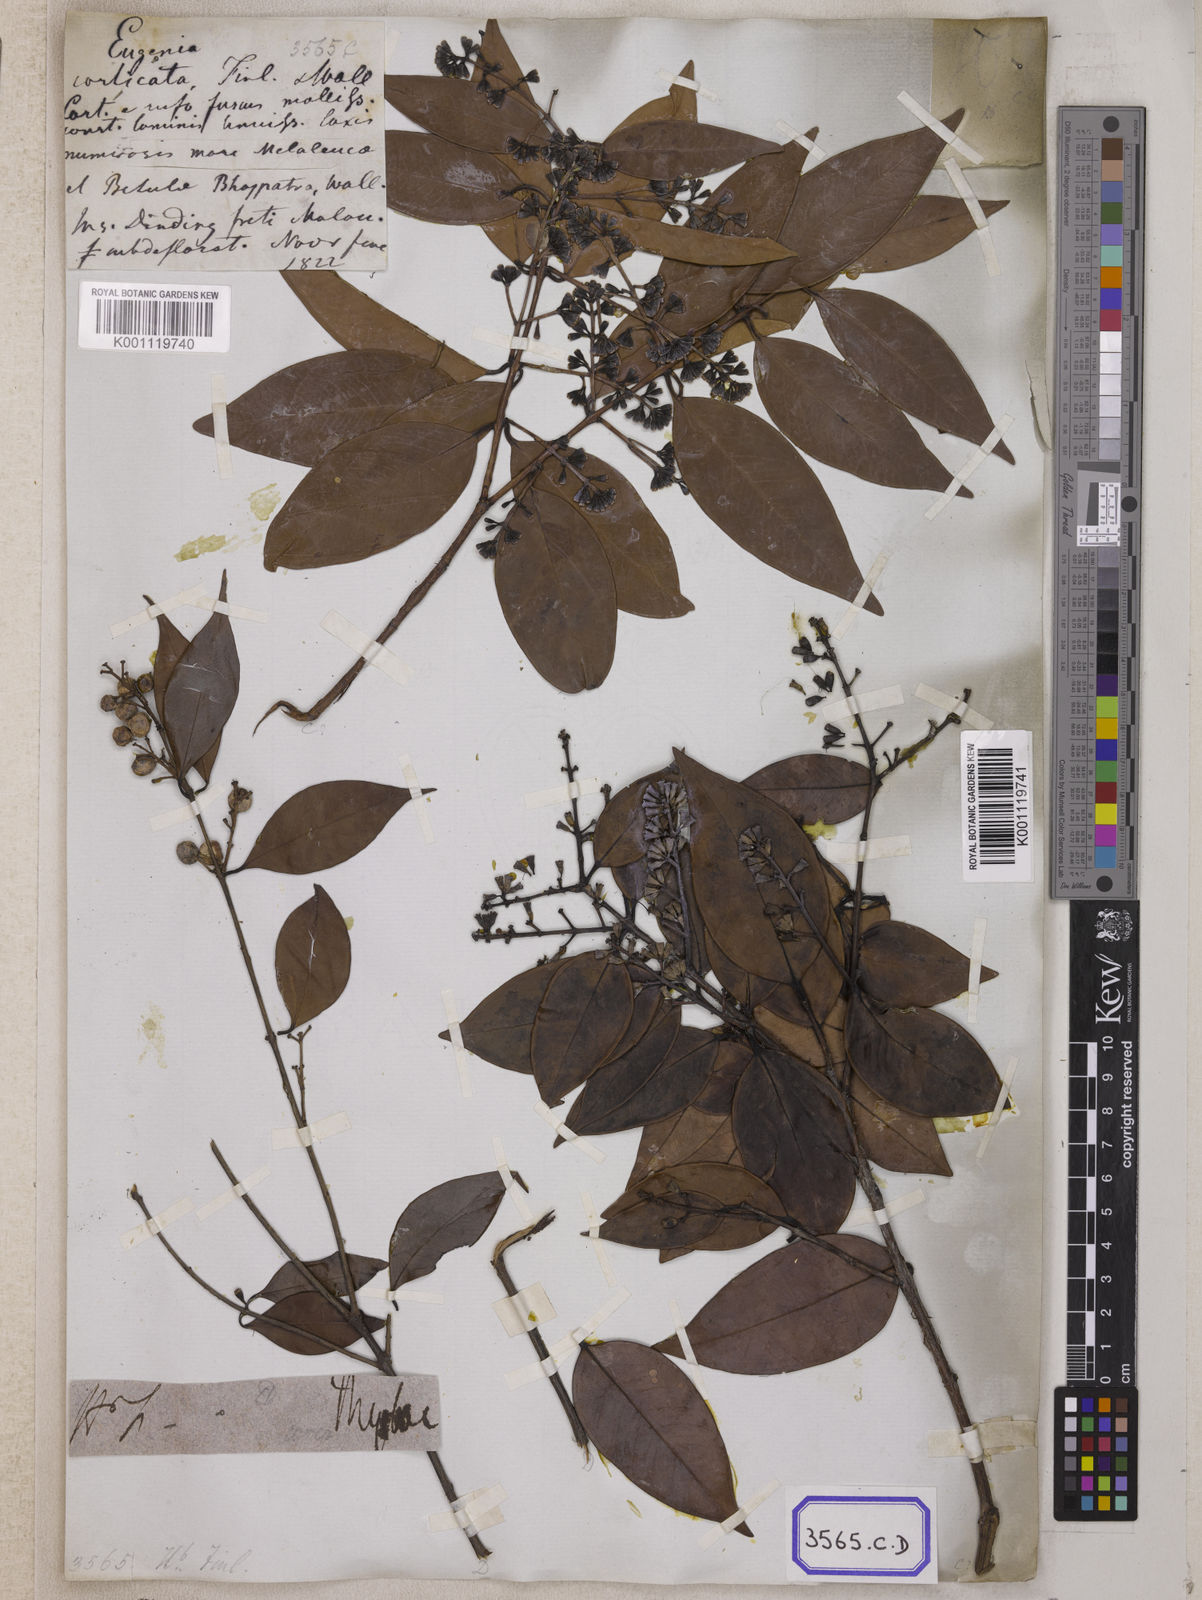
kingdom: Plantae
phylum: Tracheophyta
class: Magnoliopsida
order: Myrtales
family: Myrtaceae
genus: Syzygium
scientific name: Syzygium
